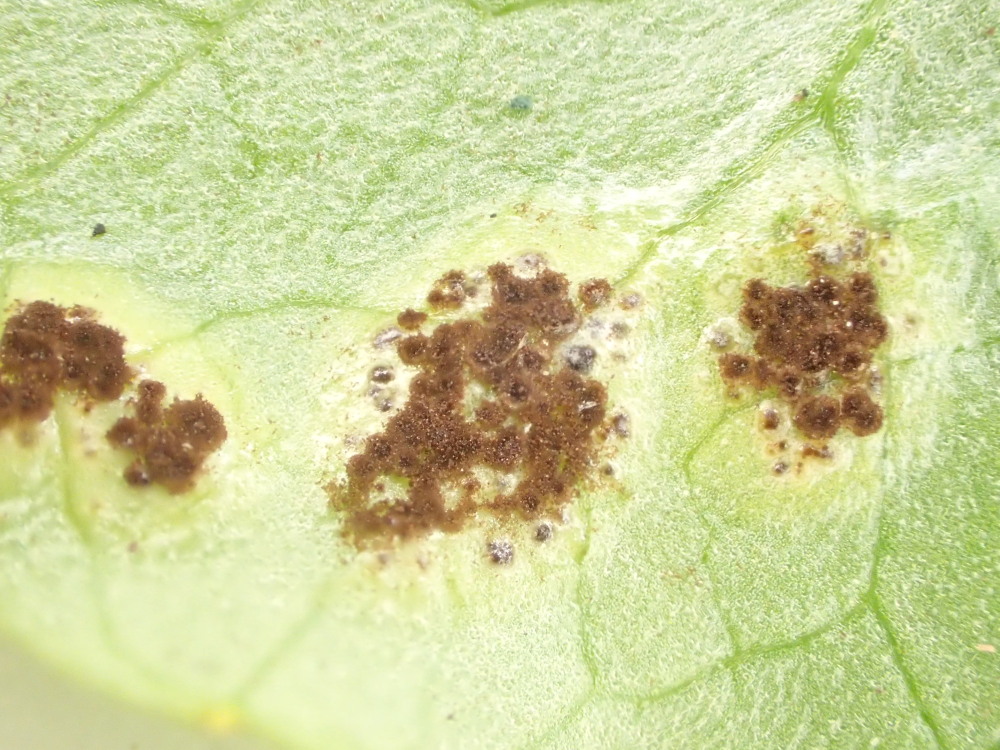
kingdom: Fungi
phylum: Basidiomycota
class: Pucciniomycetes
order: Pucciniales
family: Pucciniaceae
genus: Uromyces
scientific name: Uromyces ficariae
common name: vorterod-encellerust
